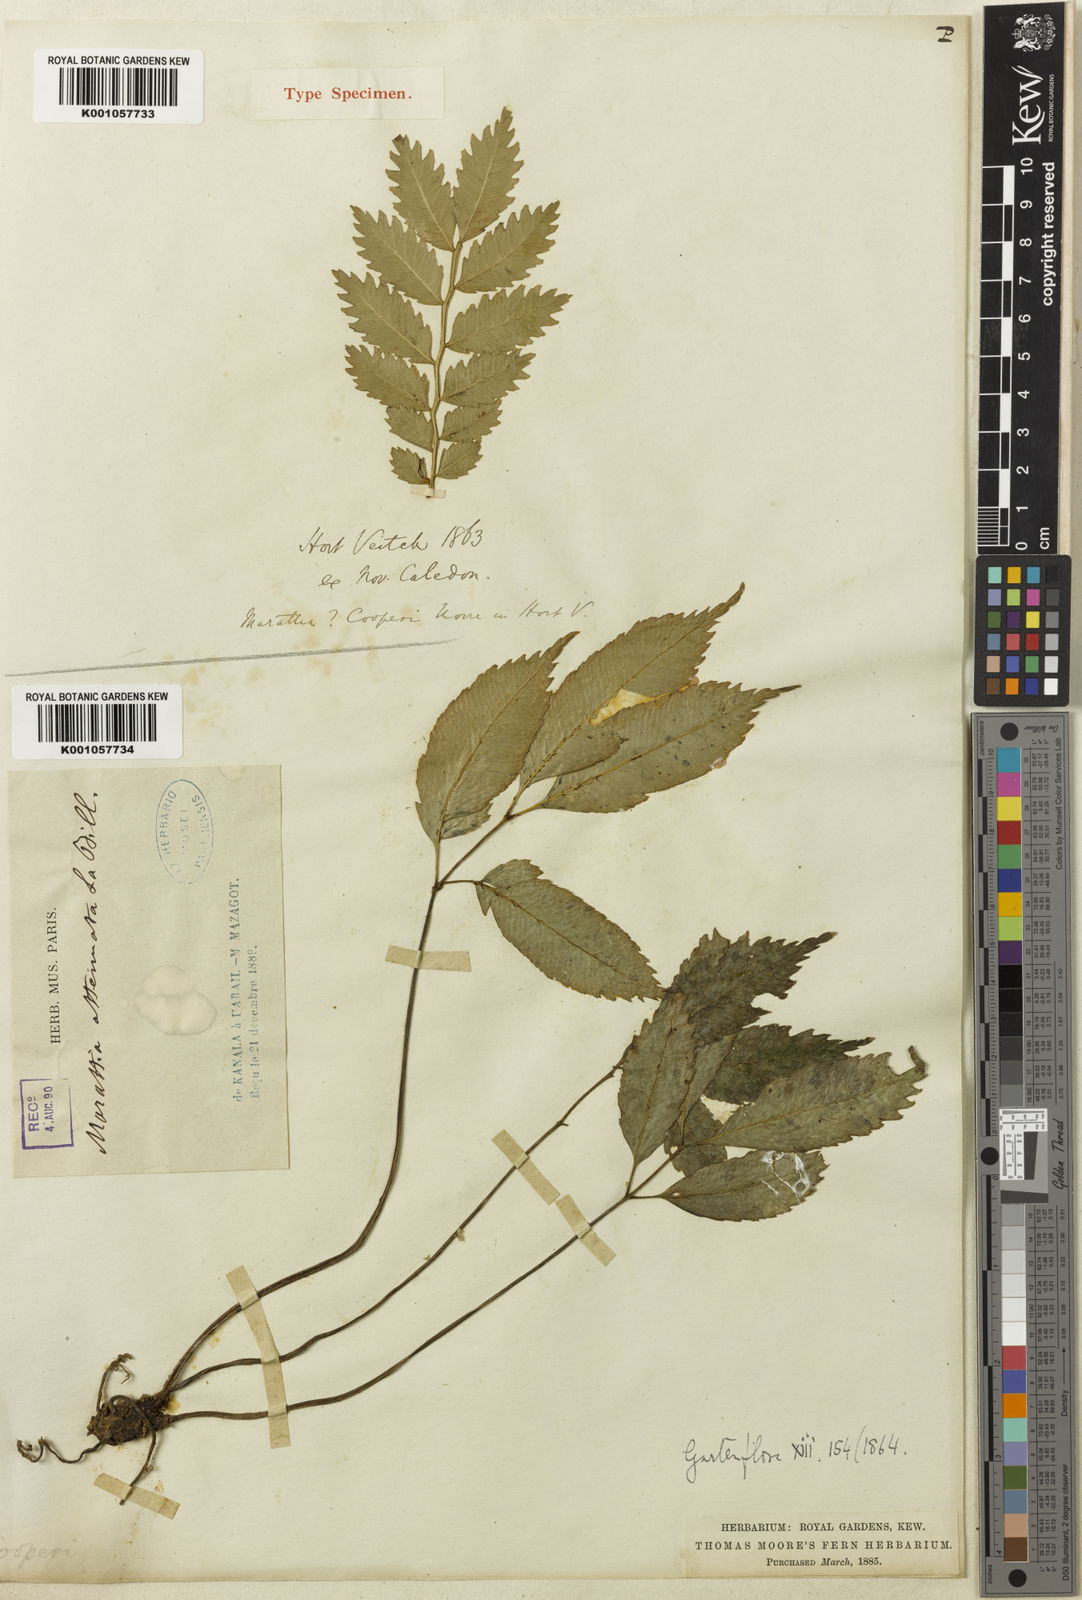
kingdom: Plantae
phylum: Tracheophyta
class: Polypodiopsida
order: Marattiales
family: Marattiaceae
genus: Ptisana
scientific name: Ptisana attenuata
